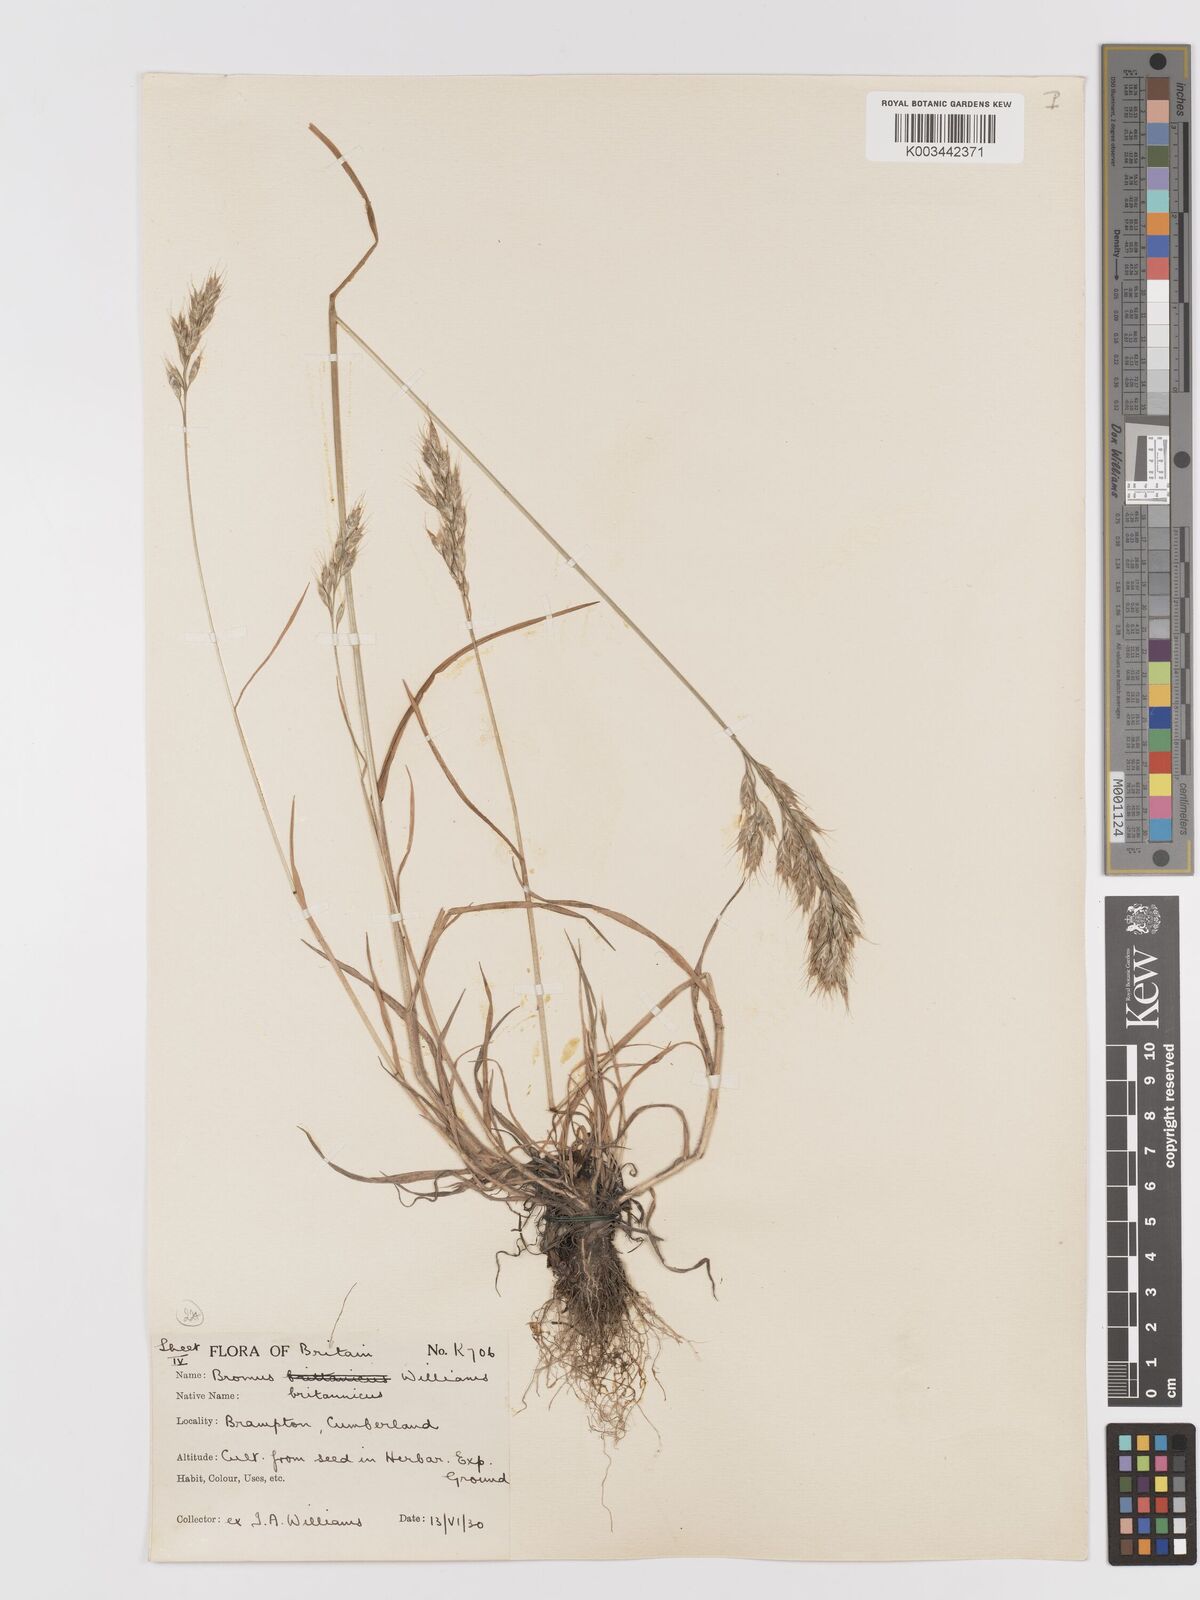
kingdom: Plantae
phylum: Tracheophyta
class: Liliopsida
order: Poales
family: Poaceae
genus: Bromus
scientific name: Bromus lepidus
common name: Slender soft-brome
